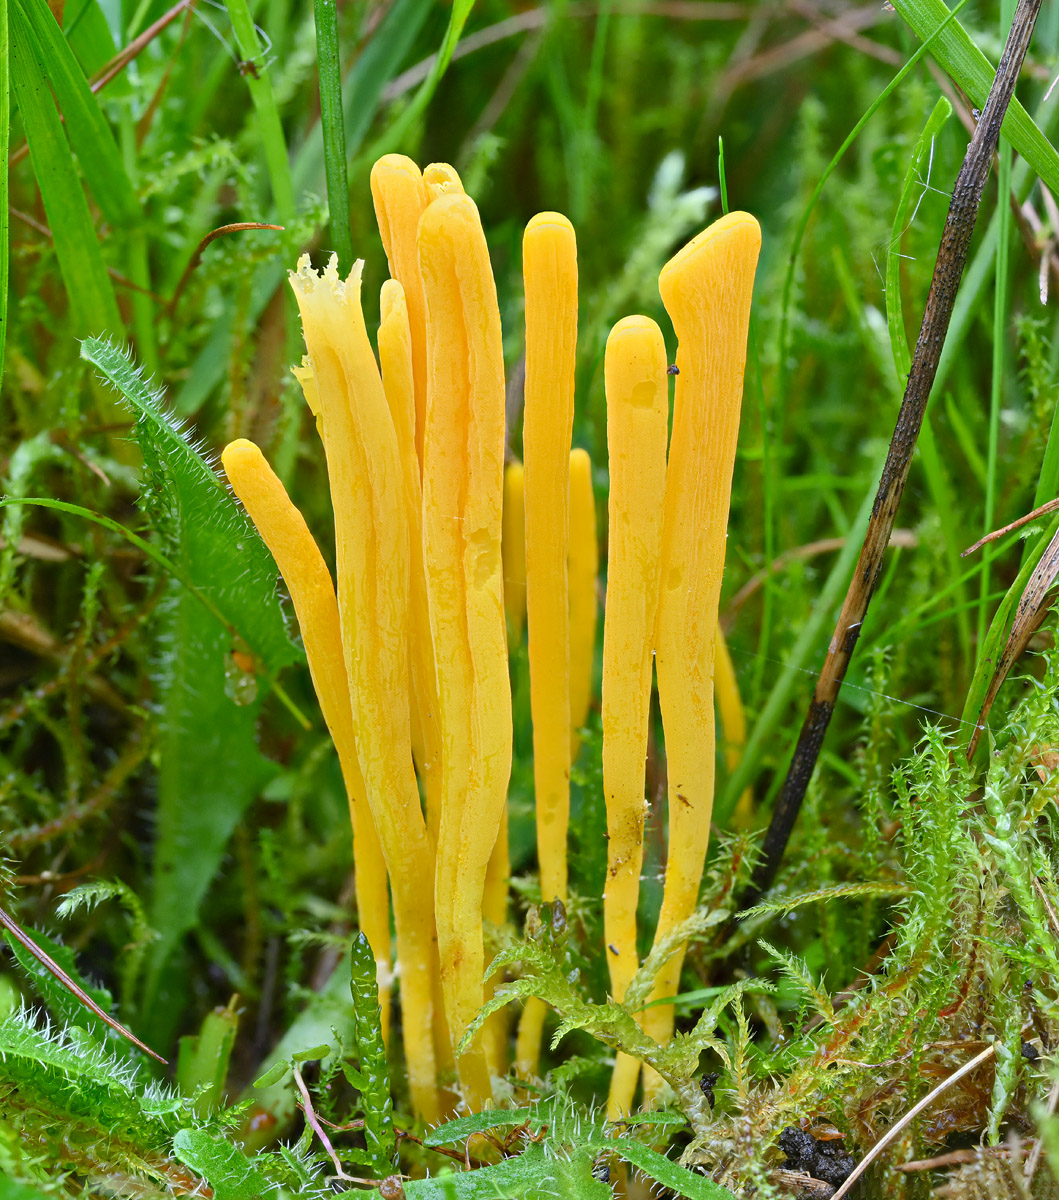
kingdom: Fungi
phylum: Basidiomycota
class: Agaricomycetes
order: Agaricales
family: Clavariaceae
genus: Clavulinopsis
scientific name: Clavulinopsis helvola
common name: orangegul køllesvamp
